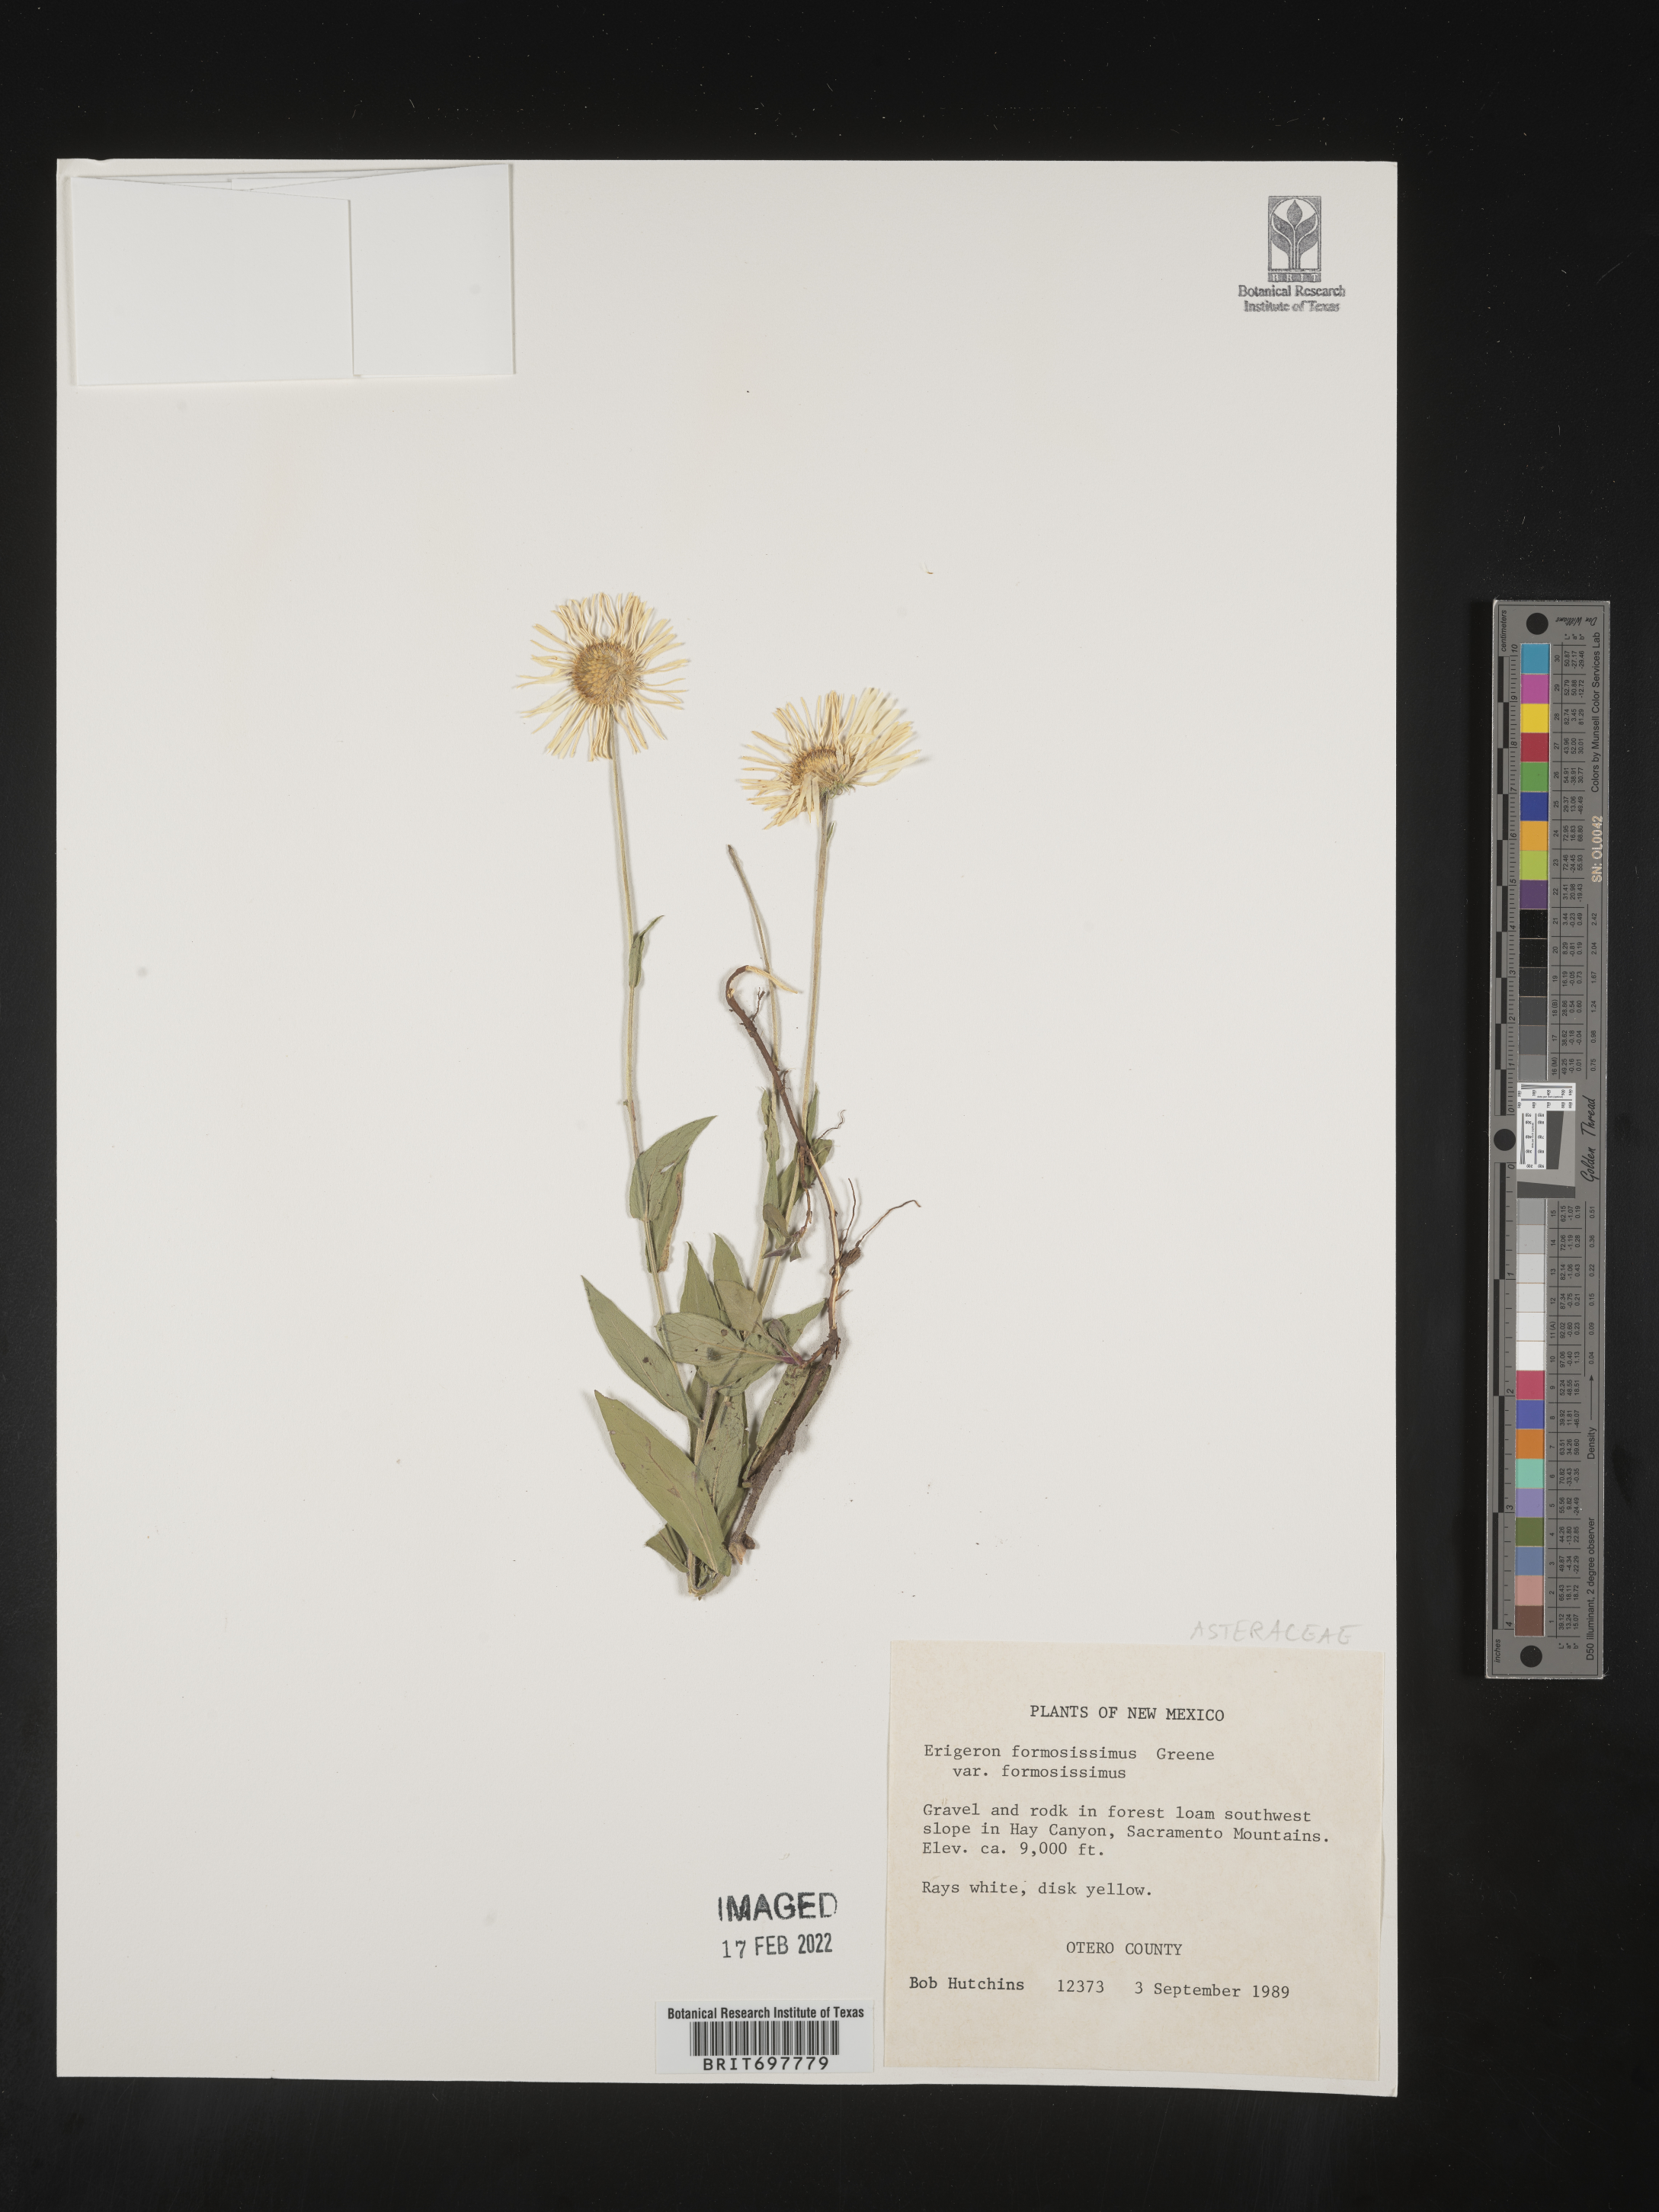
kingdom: Plantae
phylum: Tracheophyta
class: Magnoliopsida
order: Asterales
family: Asteraceae
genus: Erigeron
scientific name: Erigeron formosissimus
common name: Beautiful fleabane
